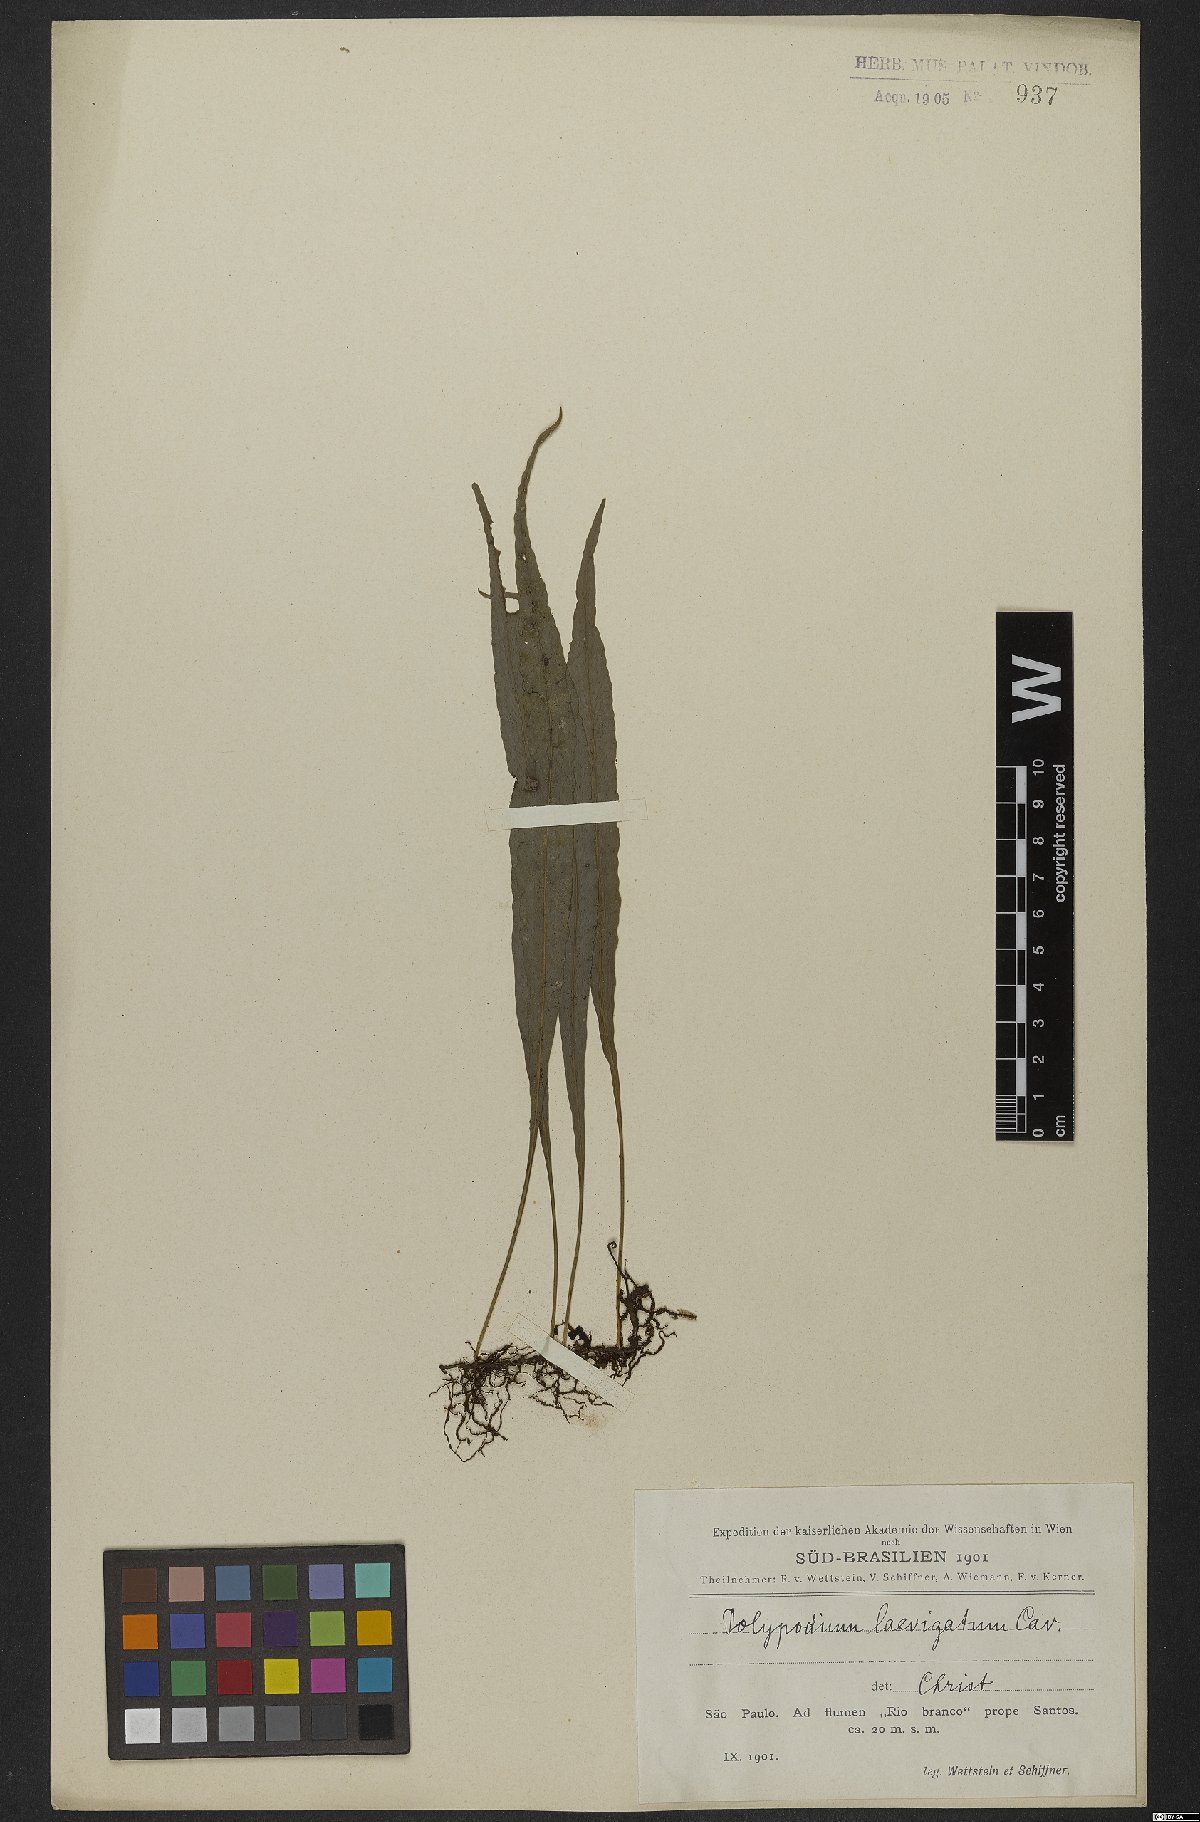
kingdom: Plantae
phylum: Tracheophyta
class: Polypodiopsida
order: Polypodiales
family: Polypodiaceae
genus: Serpocaulon
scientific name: Serpocaulon levigatum
